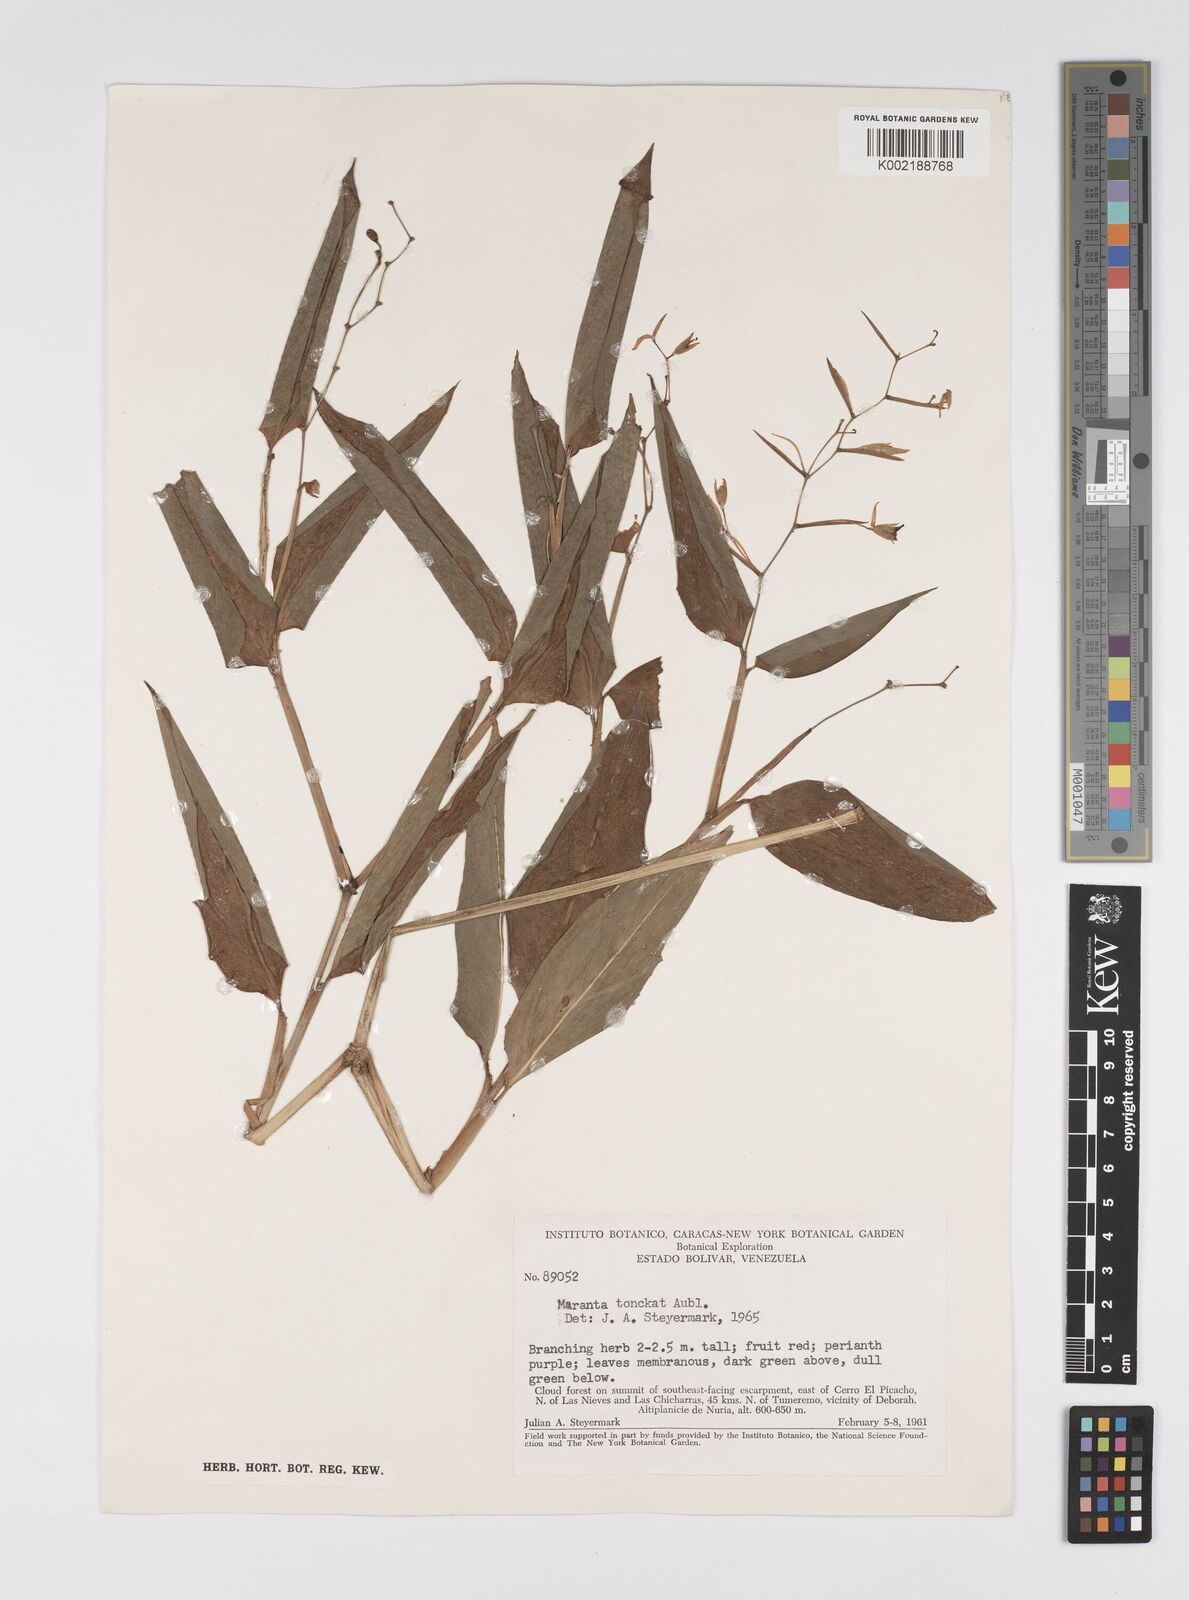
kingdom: Plantae
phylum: Tracheophyta
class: Liliopsida
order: Zingiberales
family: Marantaceae
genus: Stromanthe
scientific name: Stromanthe tonckat
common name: Stromanthe
